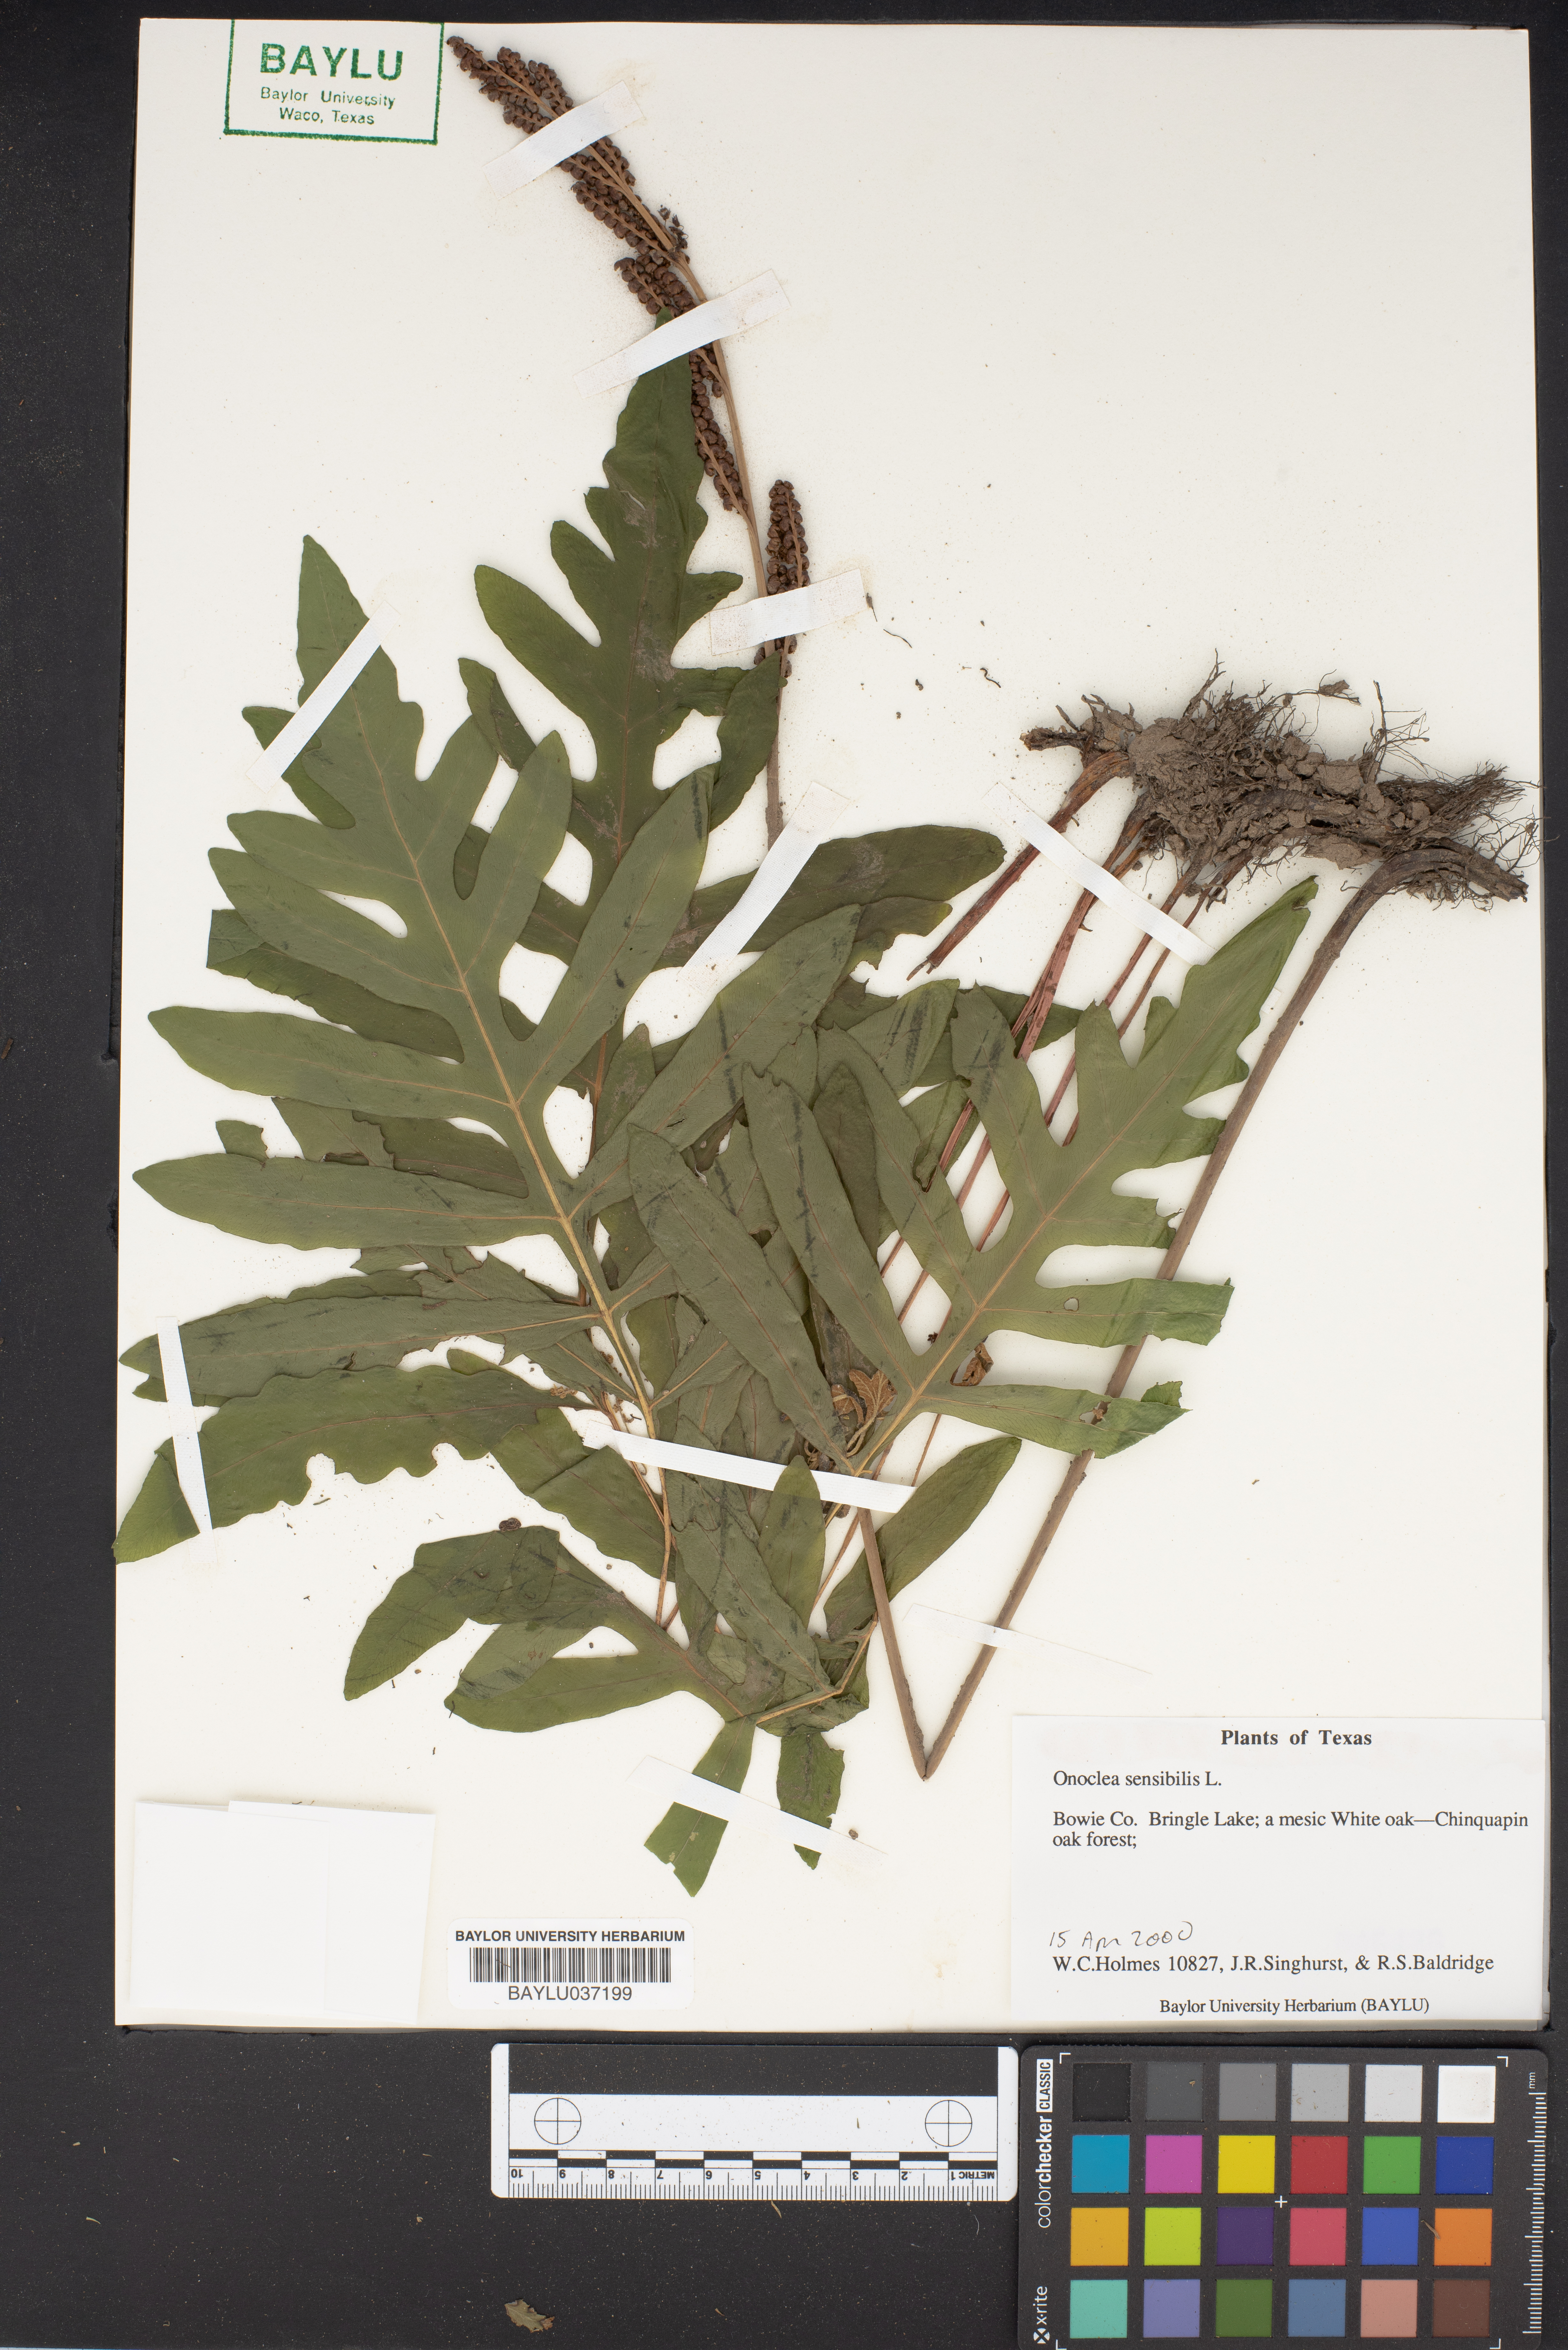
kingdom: Plantae
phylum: Tracheophyta
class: Polypodiopsida
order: Polypodiales
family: Onocleaceae
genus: Onoclea
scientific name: Onoclea sensibilis
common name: Sensitive fern
